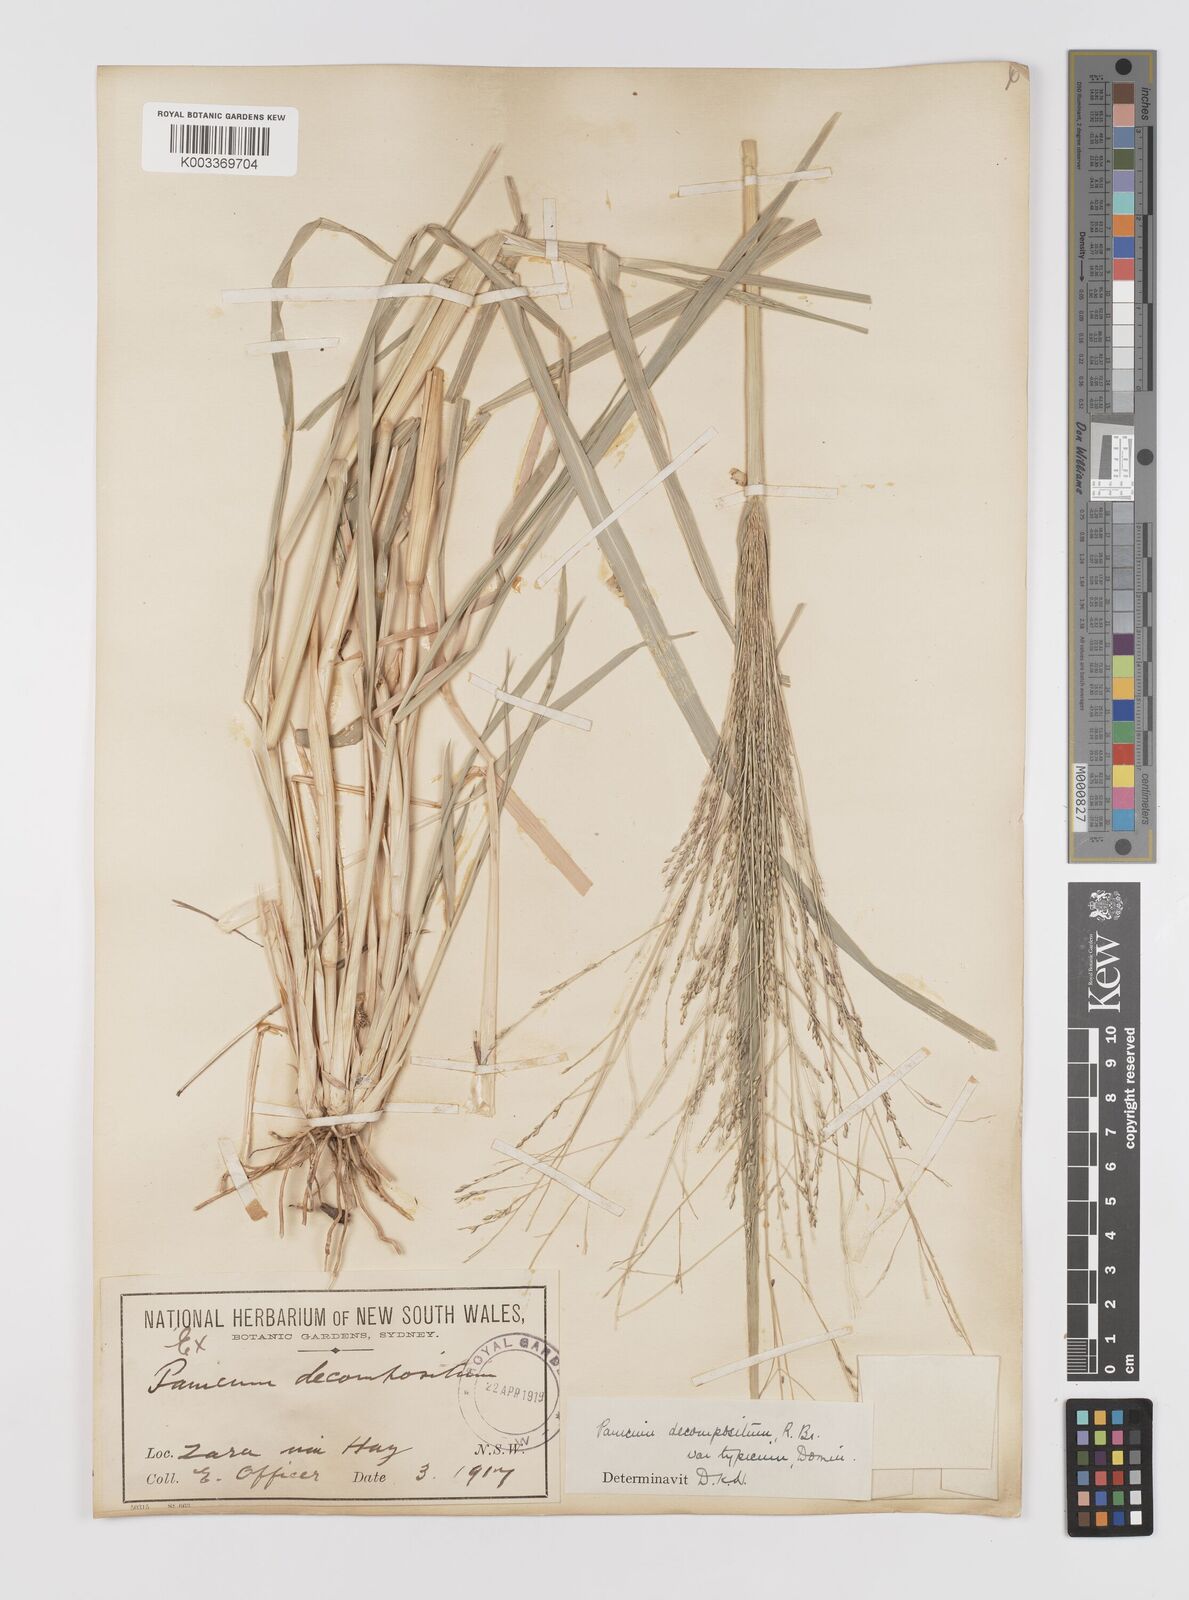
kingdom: Plantae
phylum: Tracheophyta
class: Liliopsida
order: Poales
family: Poaceae
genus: Panicum
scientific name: Panicum decompositum
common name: Australian millet
